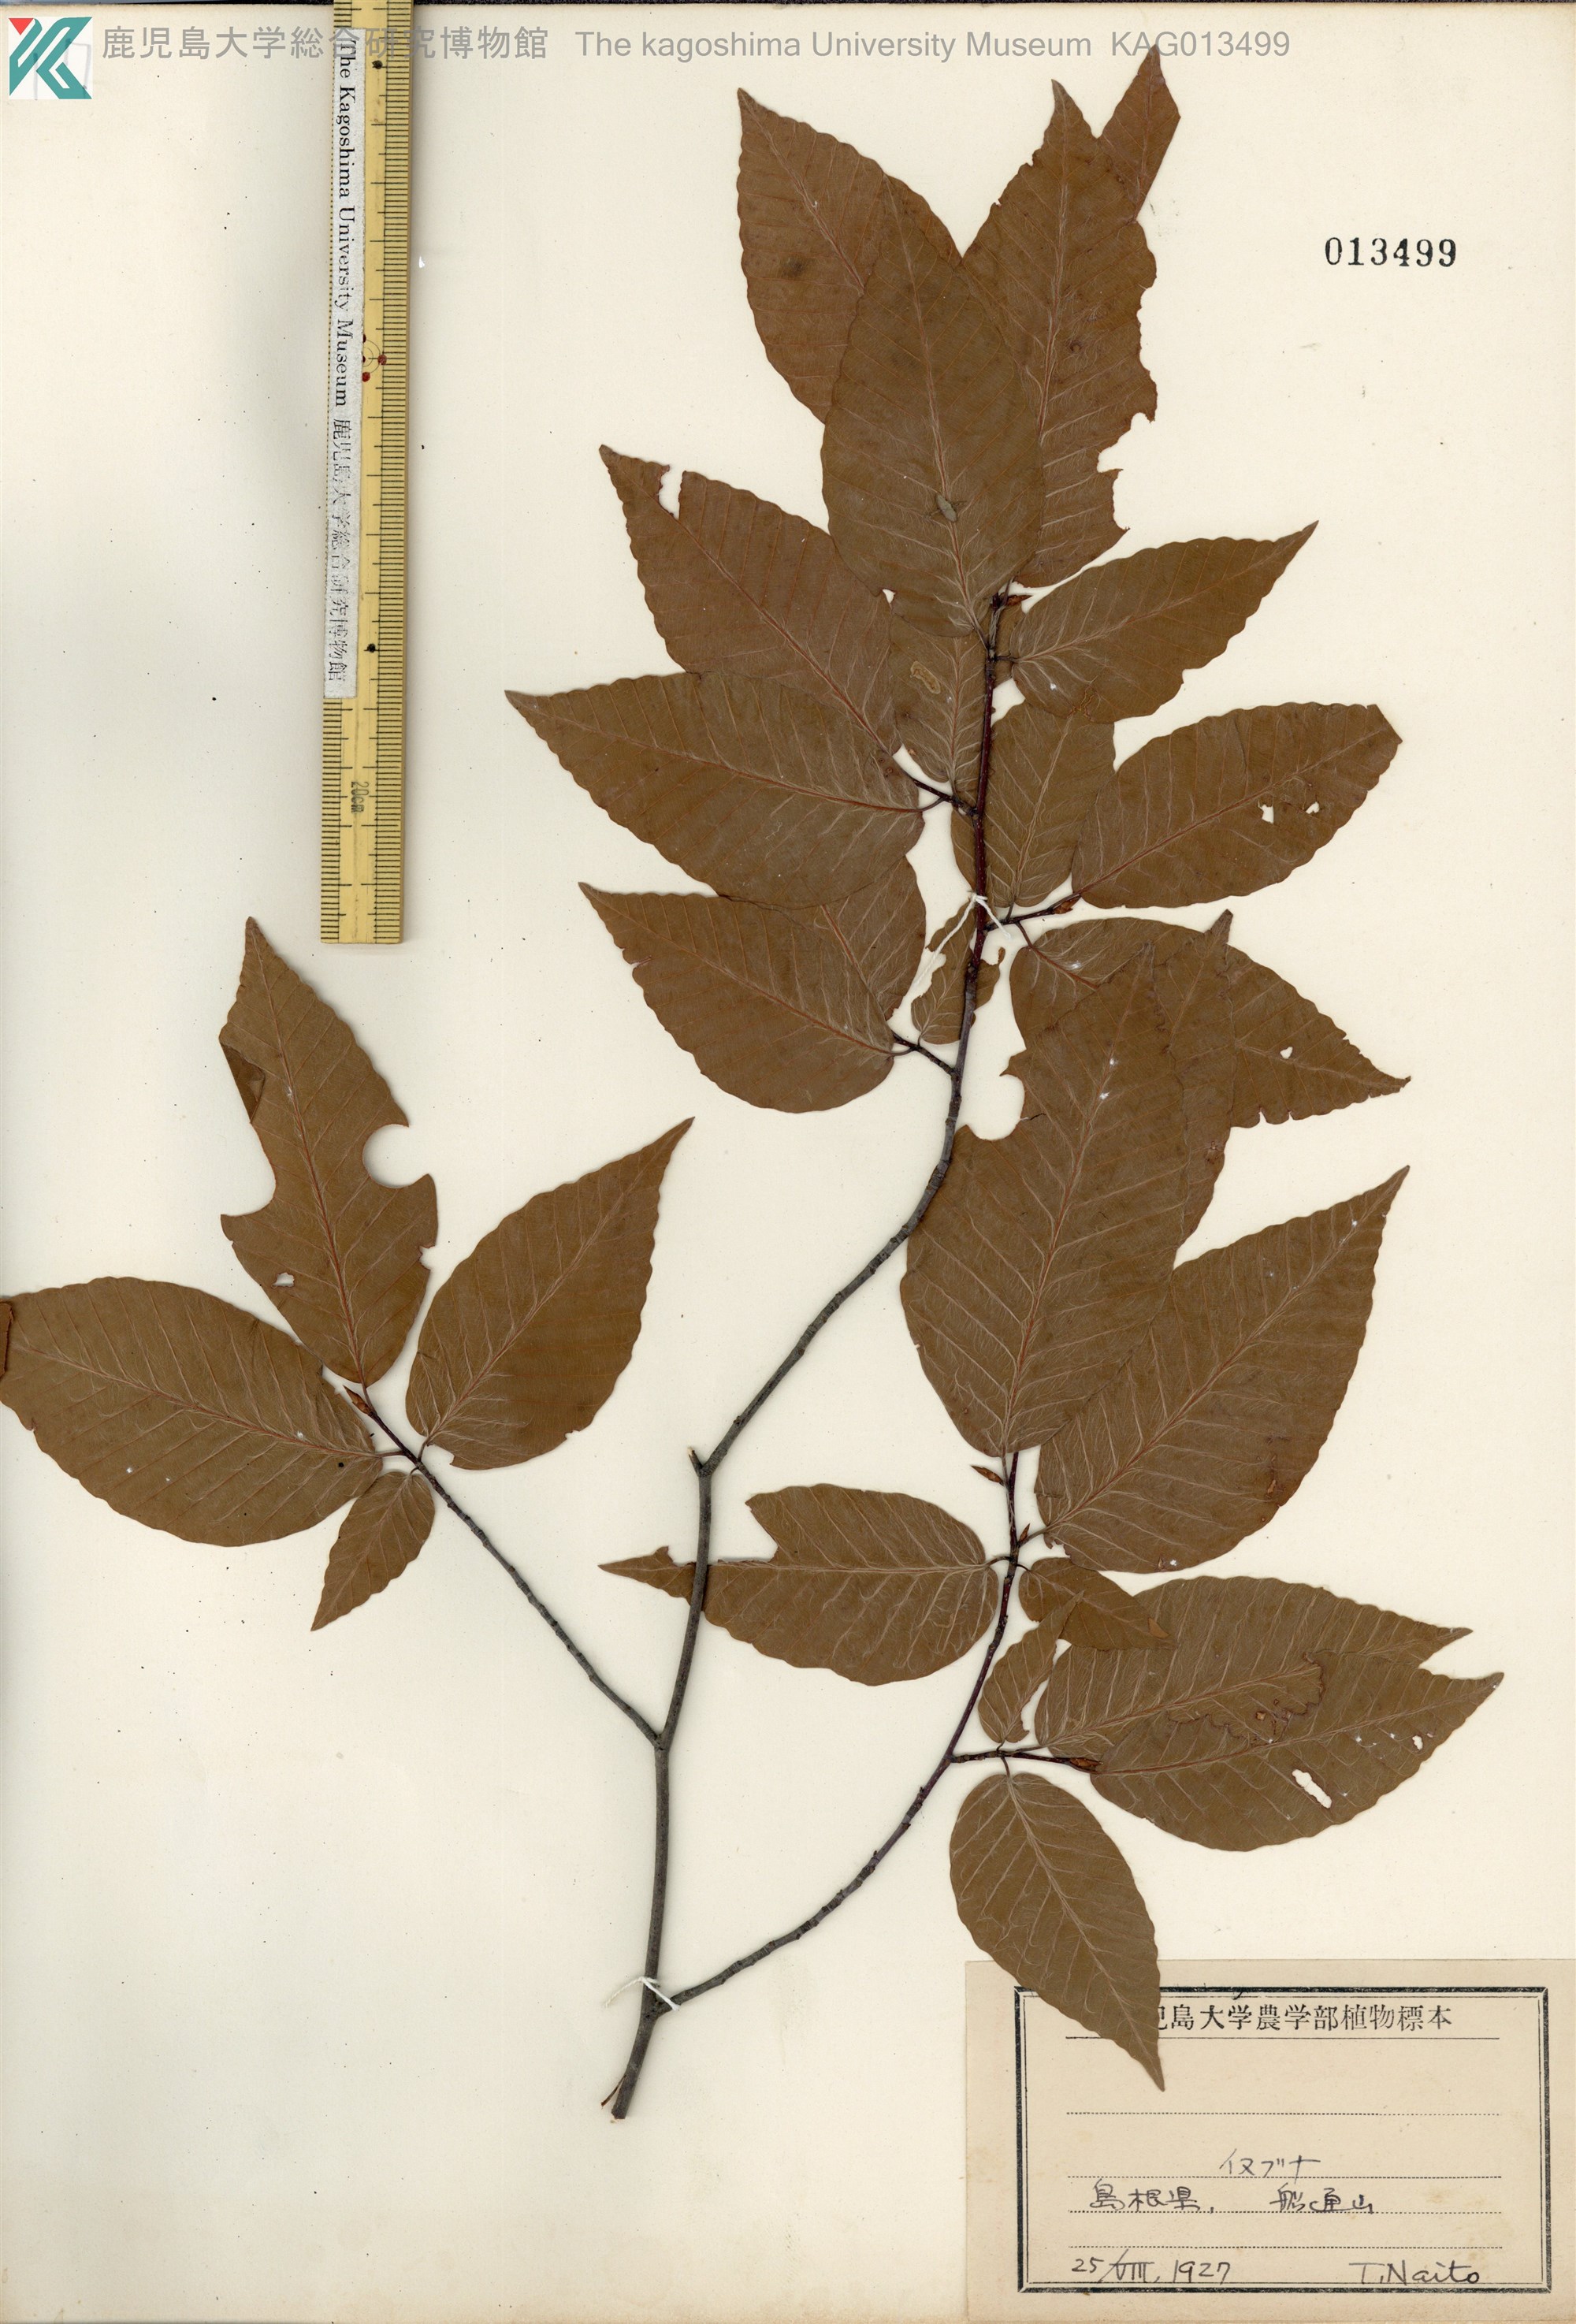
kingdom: Plantae
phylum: Tracheophyta
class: Magnoliopsida
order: Fagales
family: Fagaceae
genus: Fagus
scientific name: Fagus japonica
